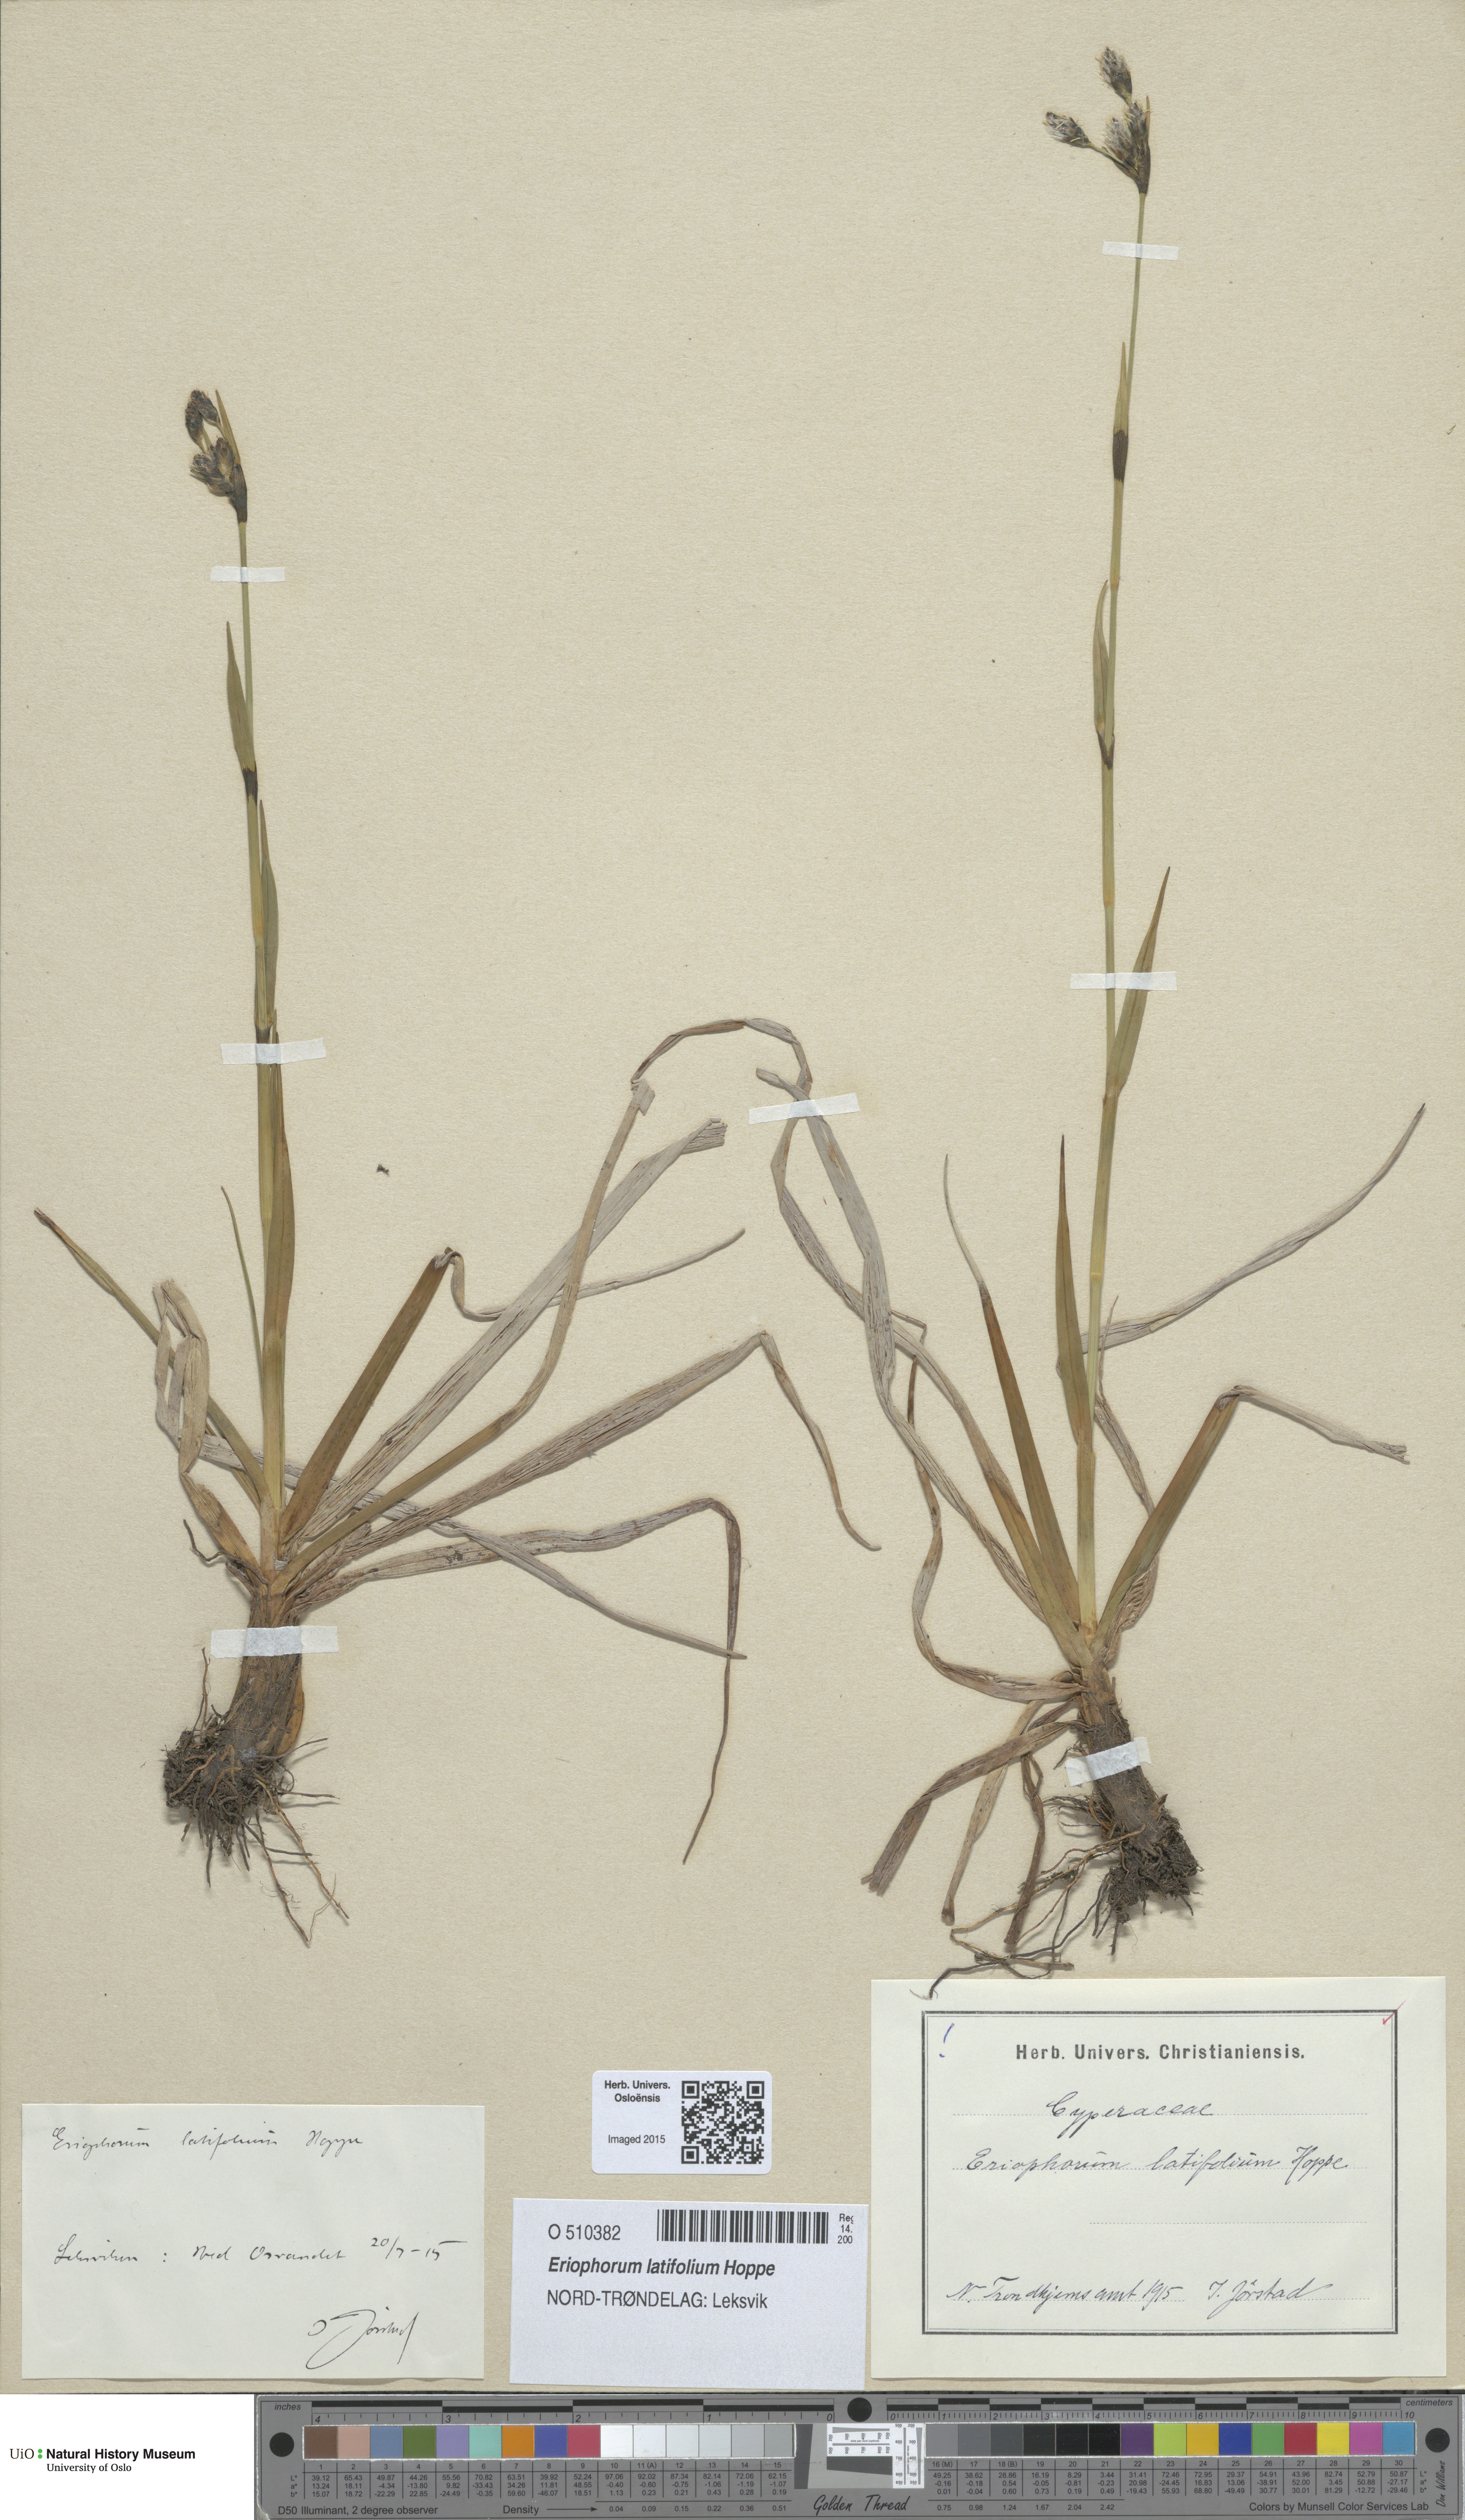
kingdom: Plantae
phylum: Tracheophyta
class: Liliopsida
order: Poales
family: Cyperaceae
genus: Eriophorum
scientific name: Eriophorum latifolium
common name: Broad-leaved cottongrass
